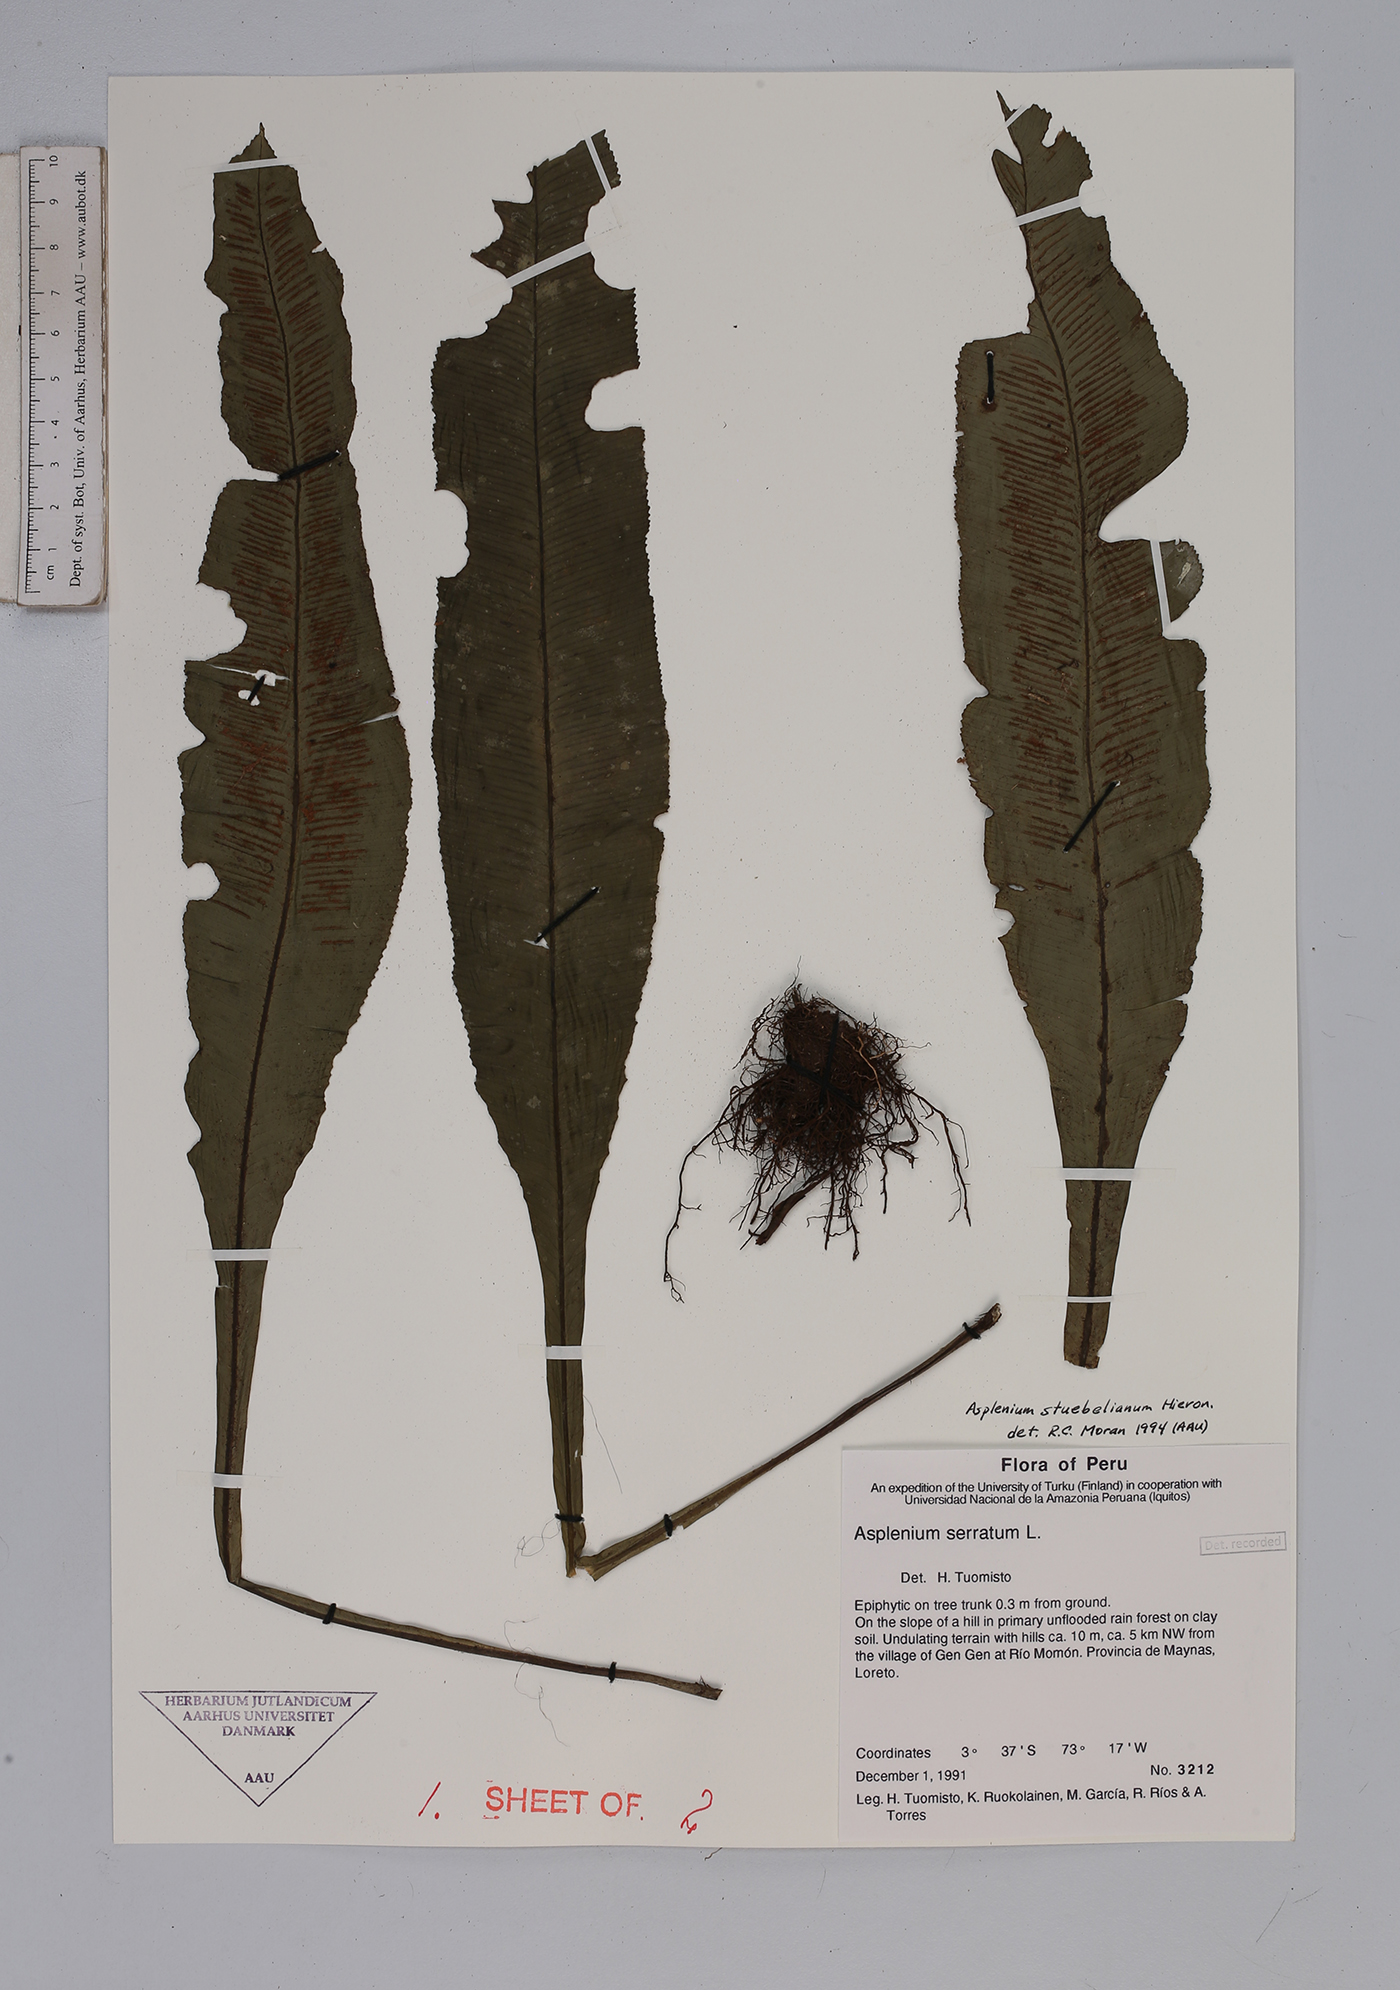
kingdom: Plantae
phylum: Tracheophyta
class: Polypodiopsida
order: Polypodiales
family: Aspleniaceae
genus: Asplenium
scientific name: Asplenium stuebelianum
